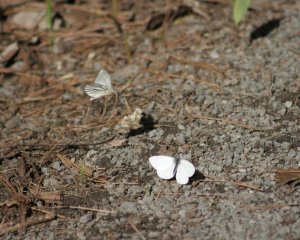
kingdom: Animalia
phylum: Arthropoda
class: Insecta
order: Lepidoptera
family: Pieridae
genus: Pieris
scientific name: Pieris oleracea
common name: Mustard White
